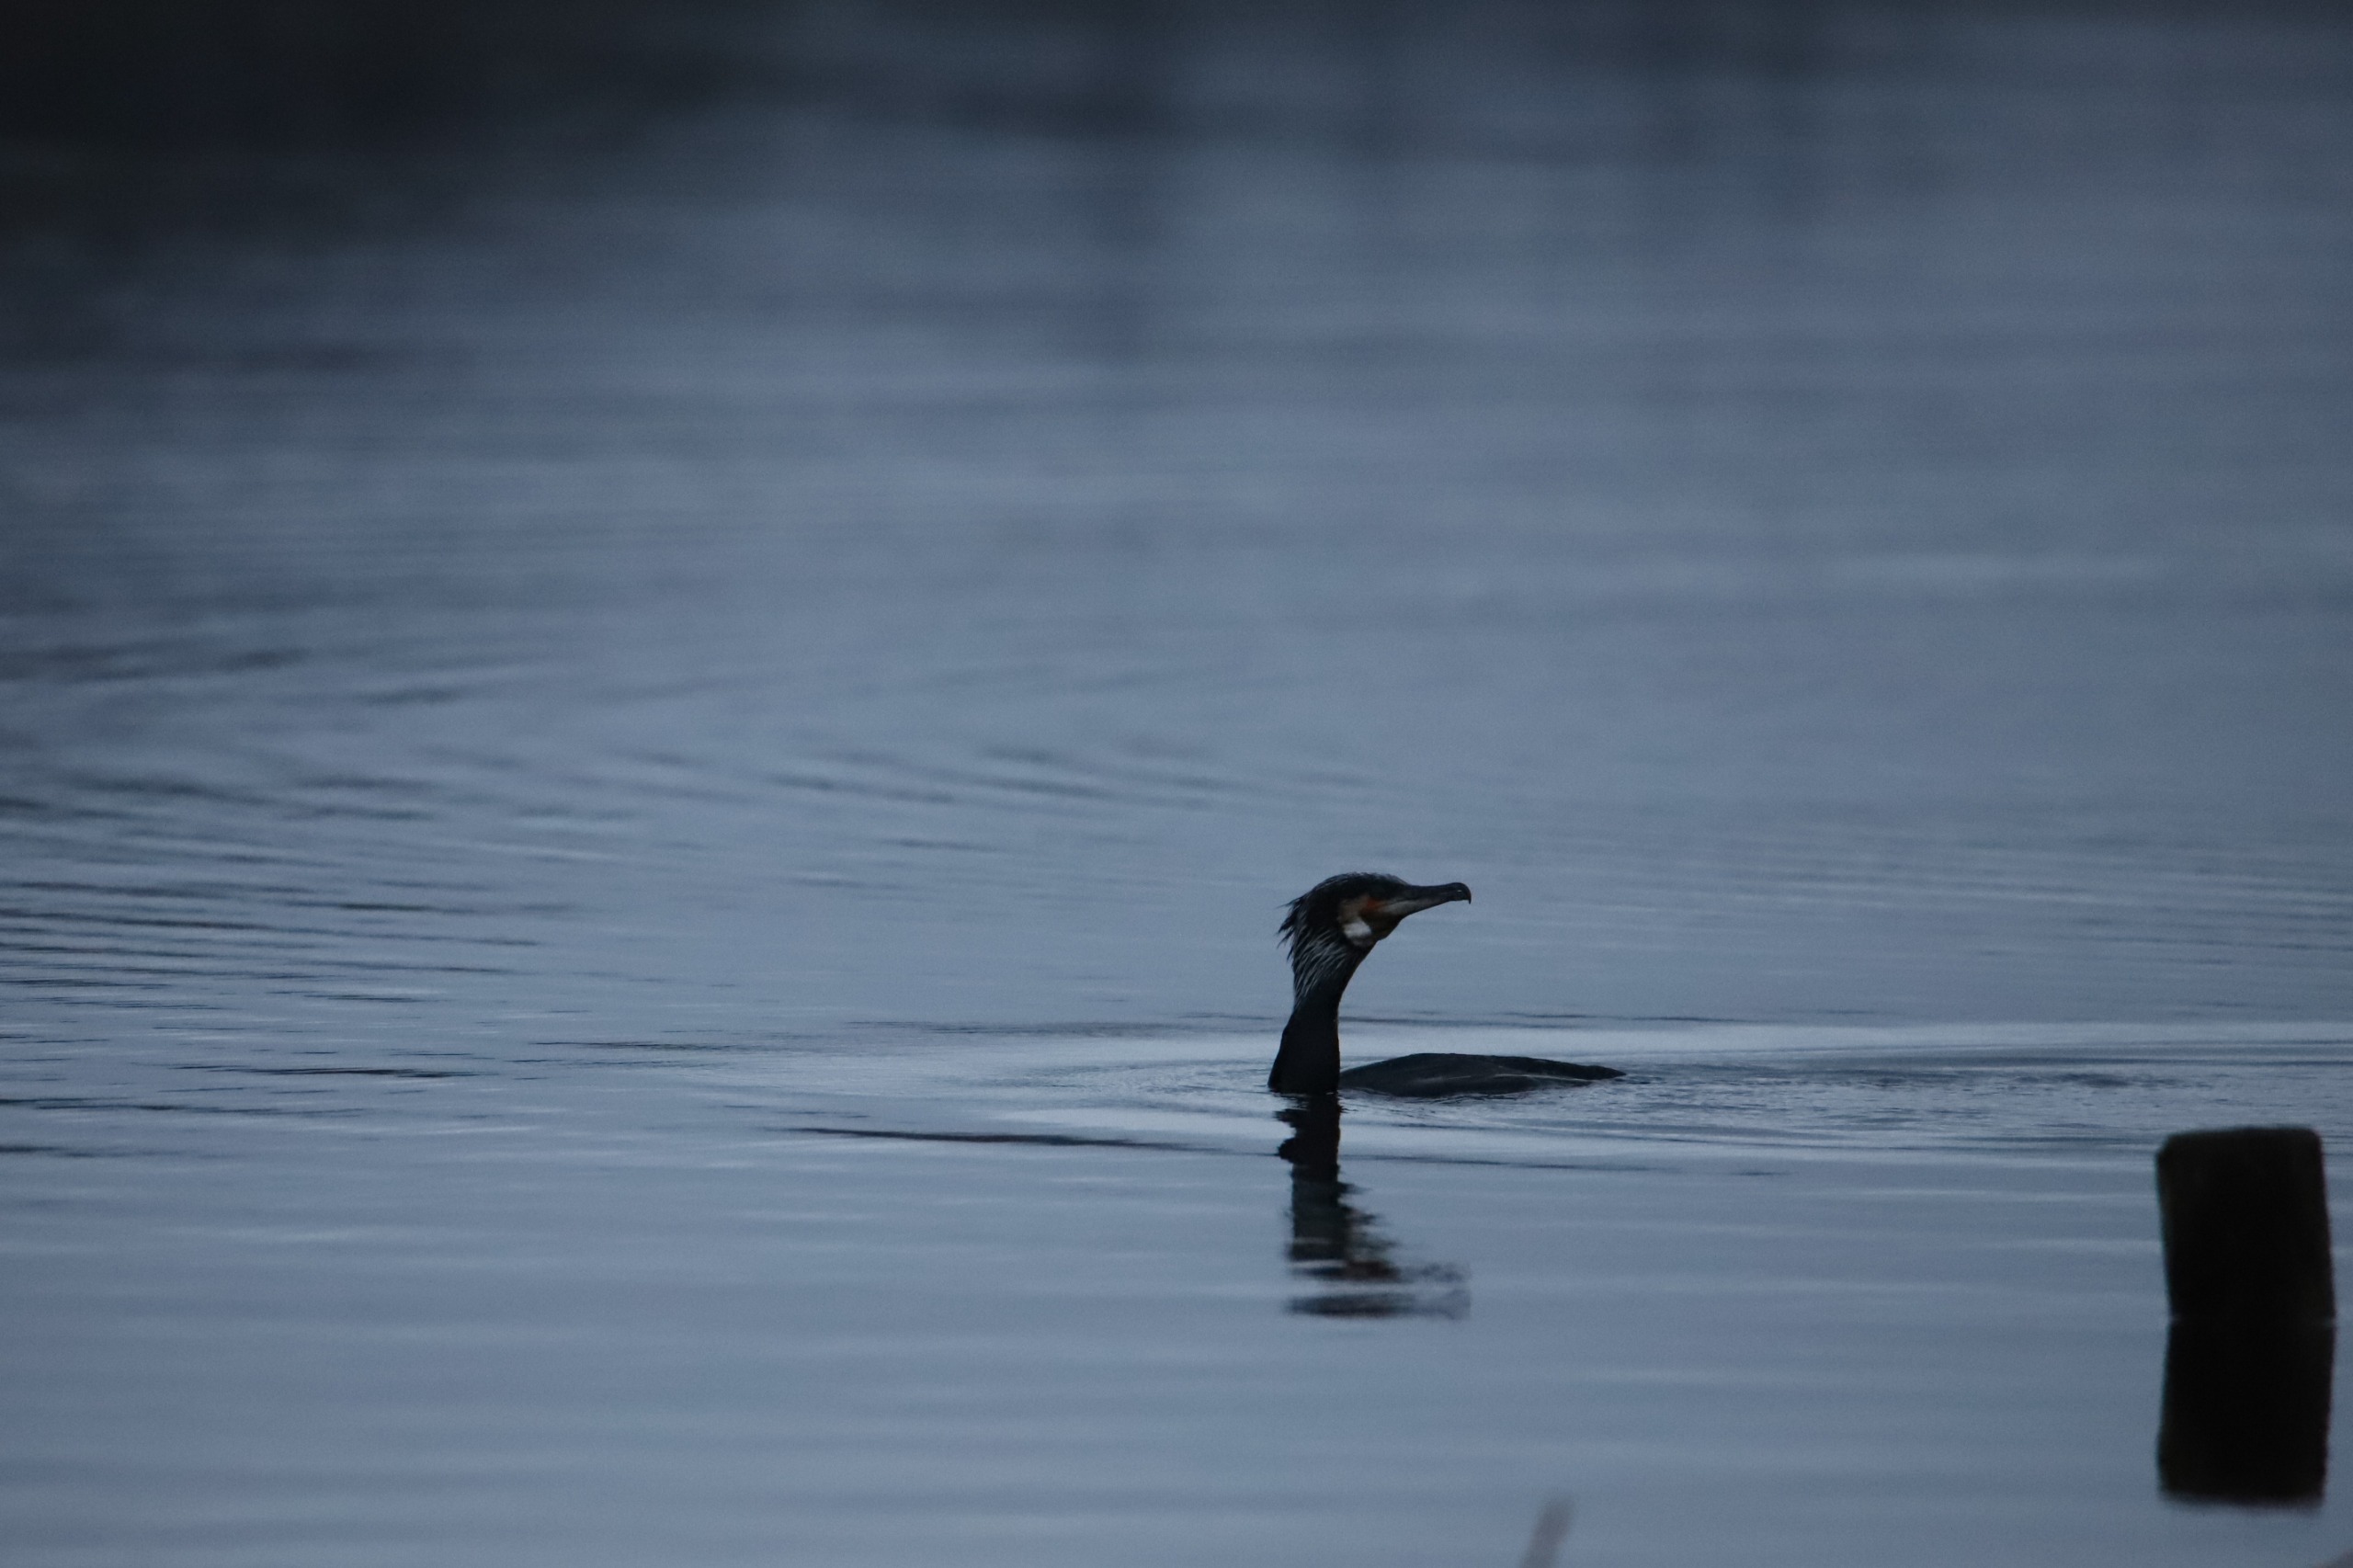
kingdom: Animalia
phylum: Chordata
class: Aves
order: Suliformes
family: Phalacrocoracidae
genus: Phalacrocorax
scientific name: Phalacrocorax carbo
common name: Skarv
